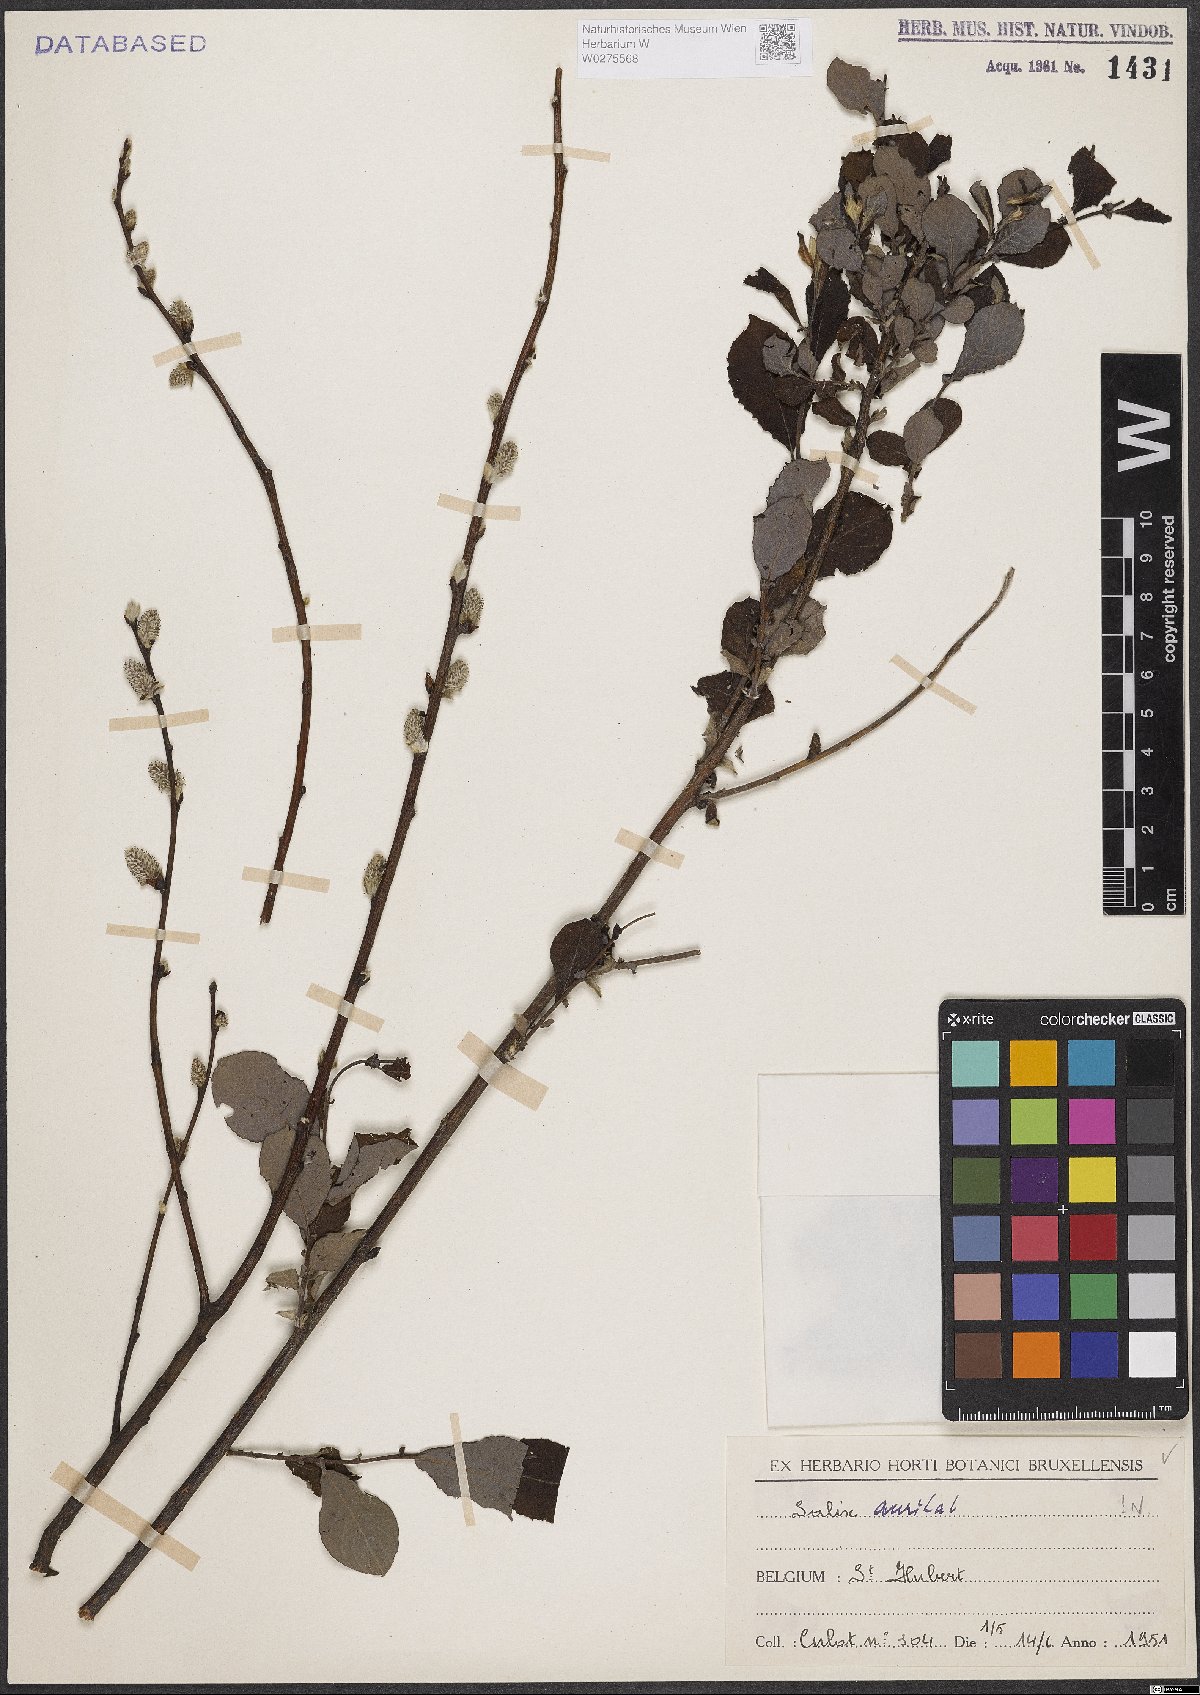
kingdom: Plantae
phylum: Tracheophyta
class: Magnoliopsida
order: Malpighiales
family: Salicaceae
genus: Salix
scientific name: Salix aurita
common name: Eared willow
